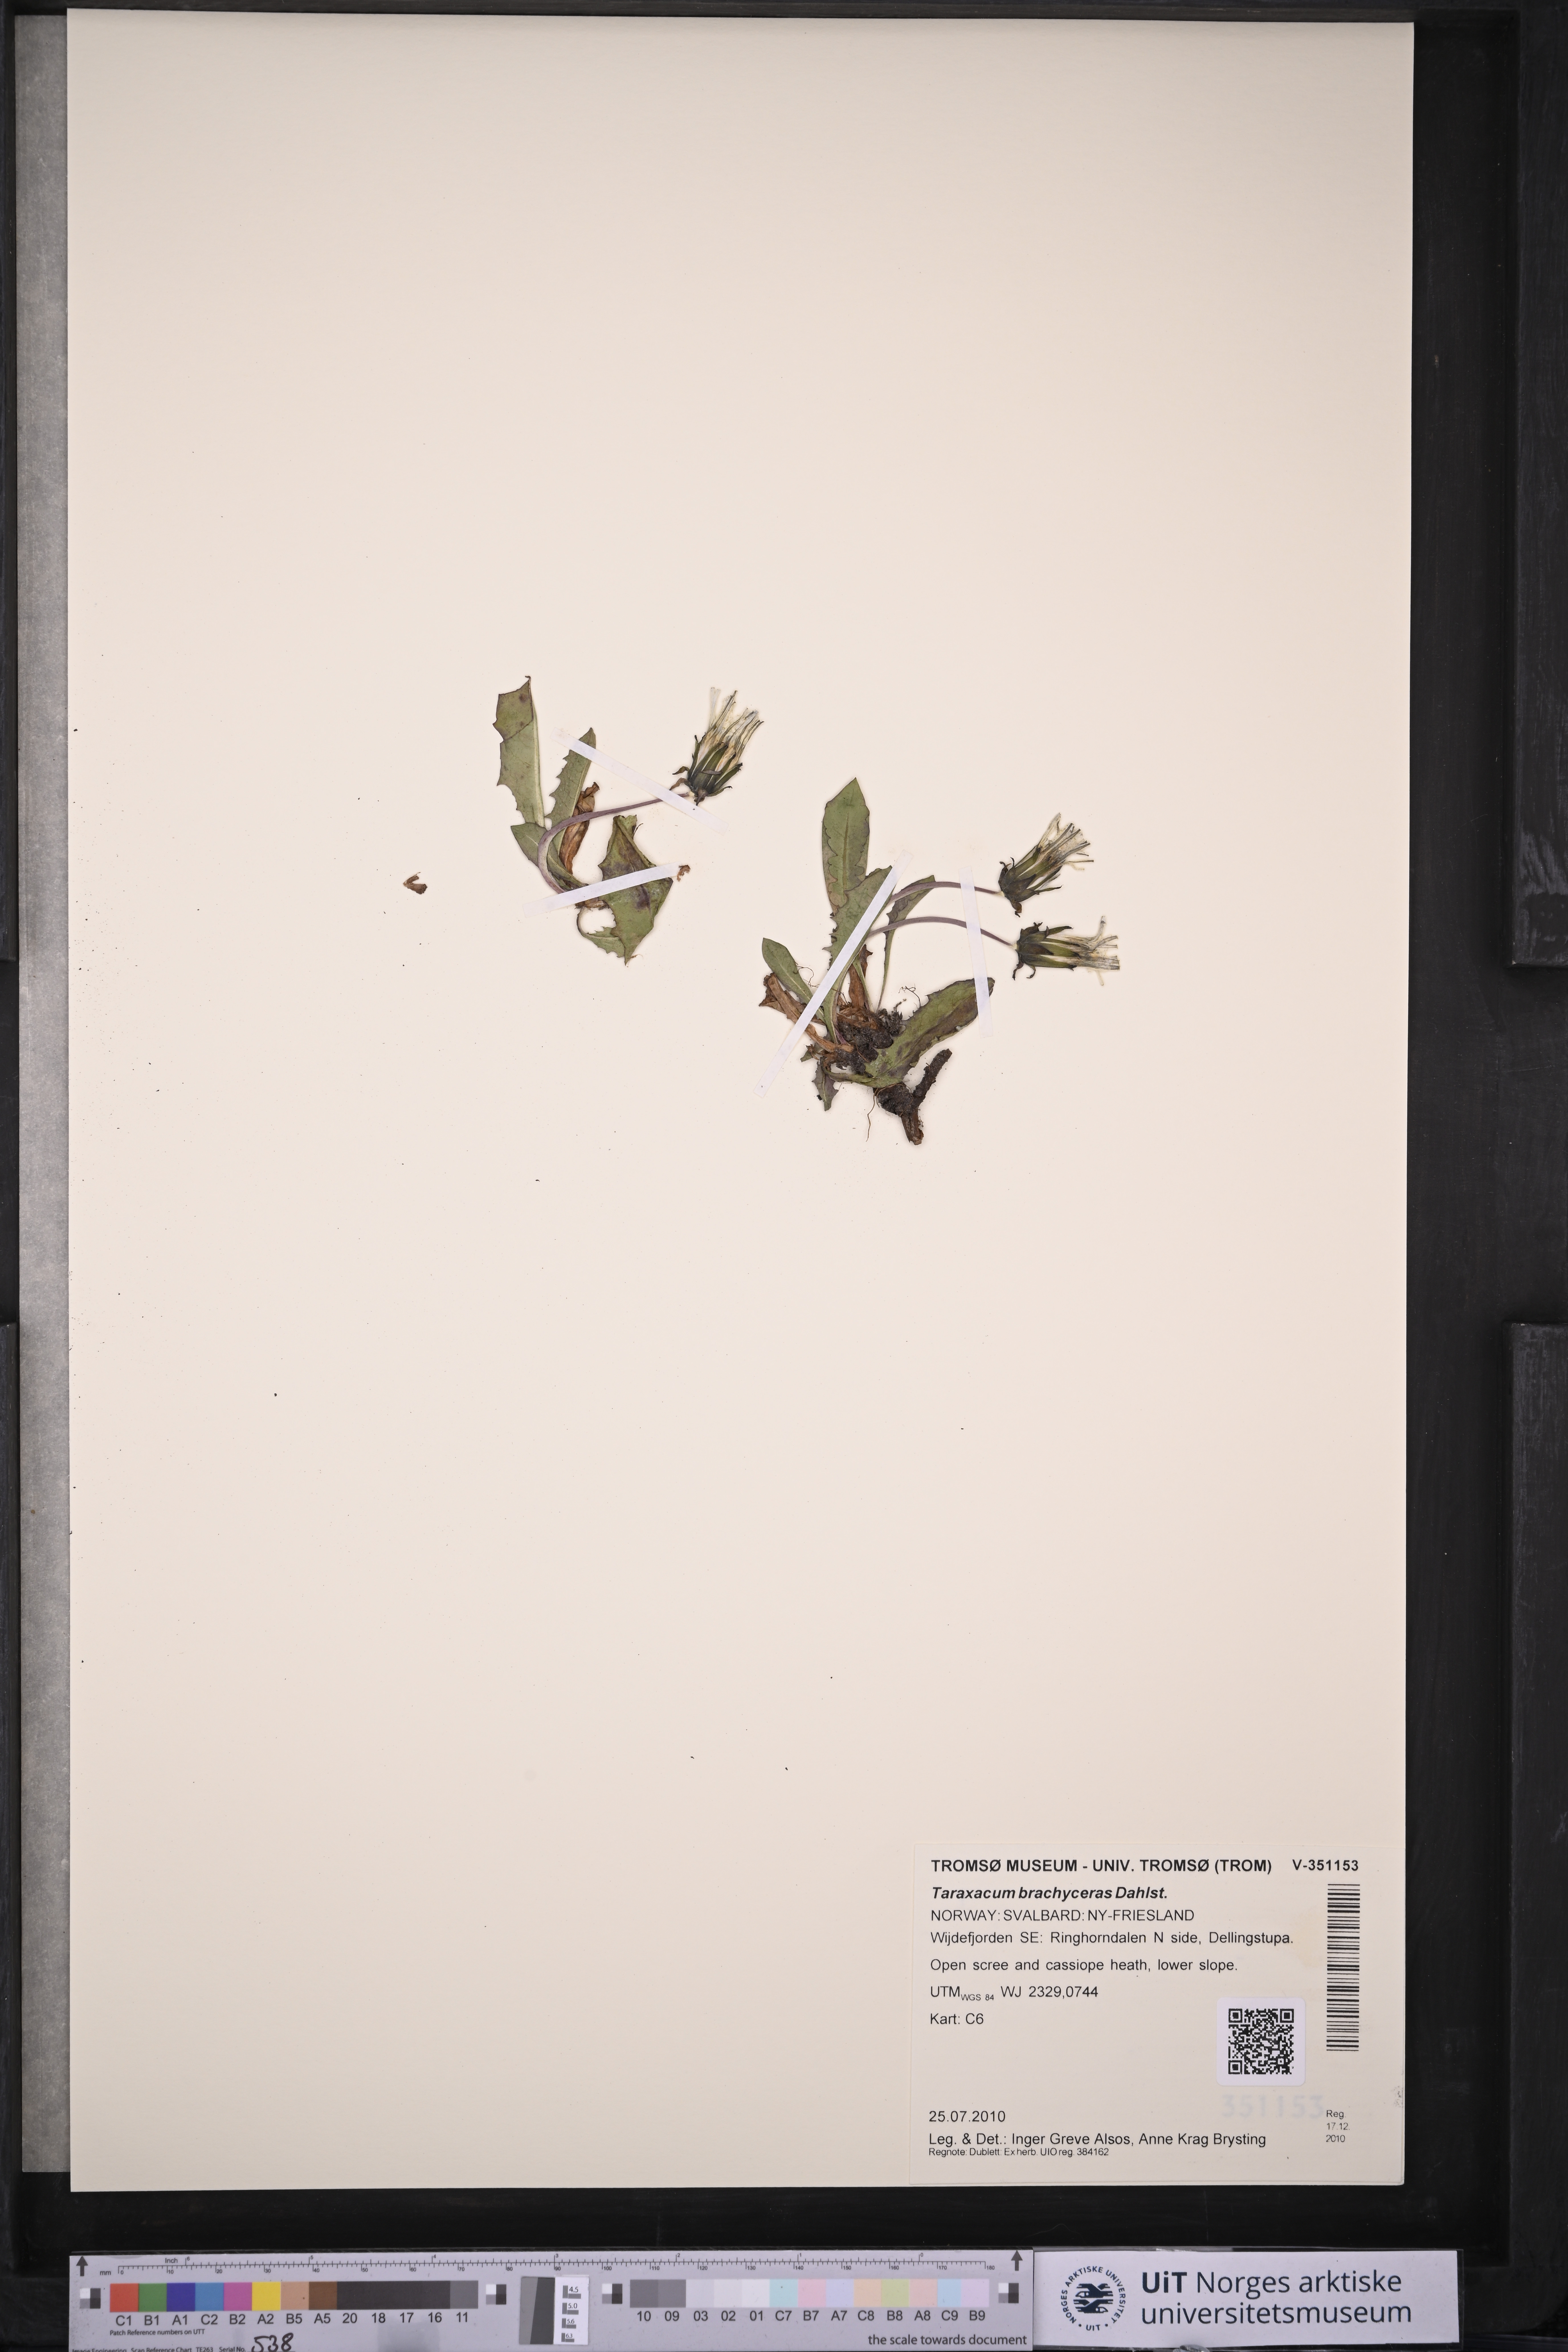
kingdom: Plantae
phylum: Tracheophyta
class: Magnoliopsida
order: Asterales
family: Asteraceae
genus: Taraxacum
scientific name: Taraxacum brachyceras
